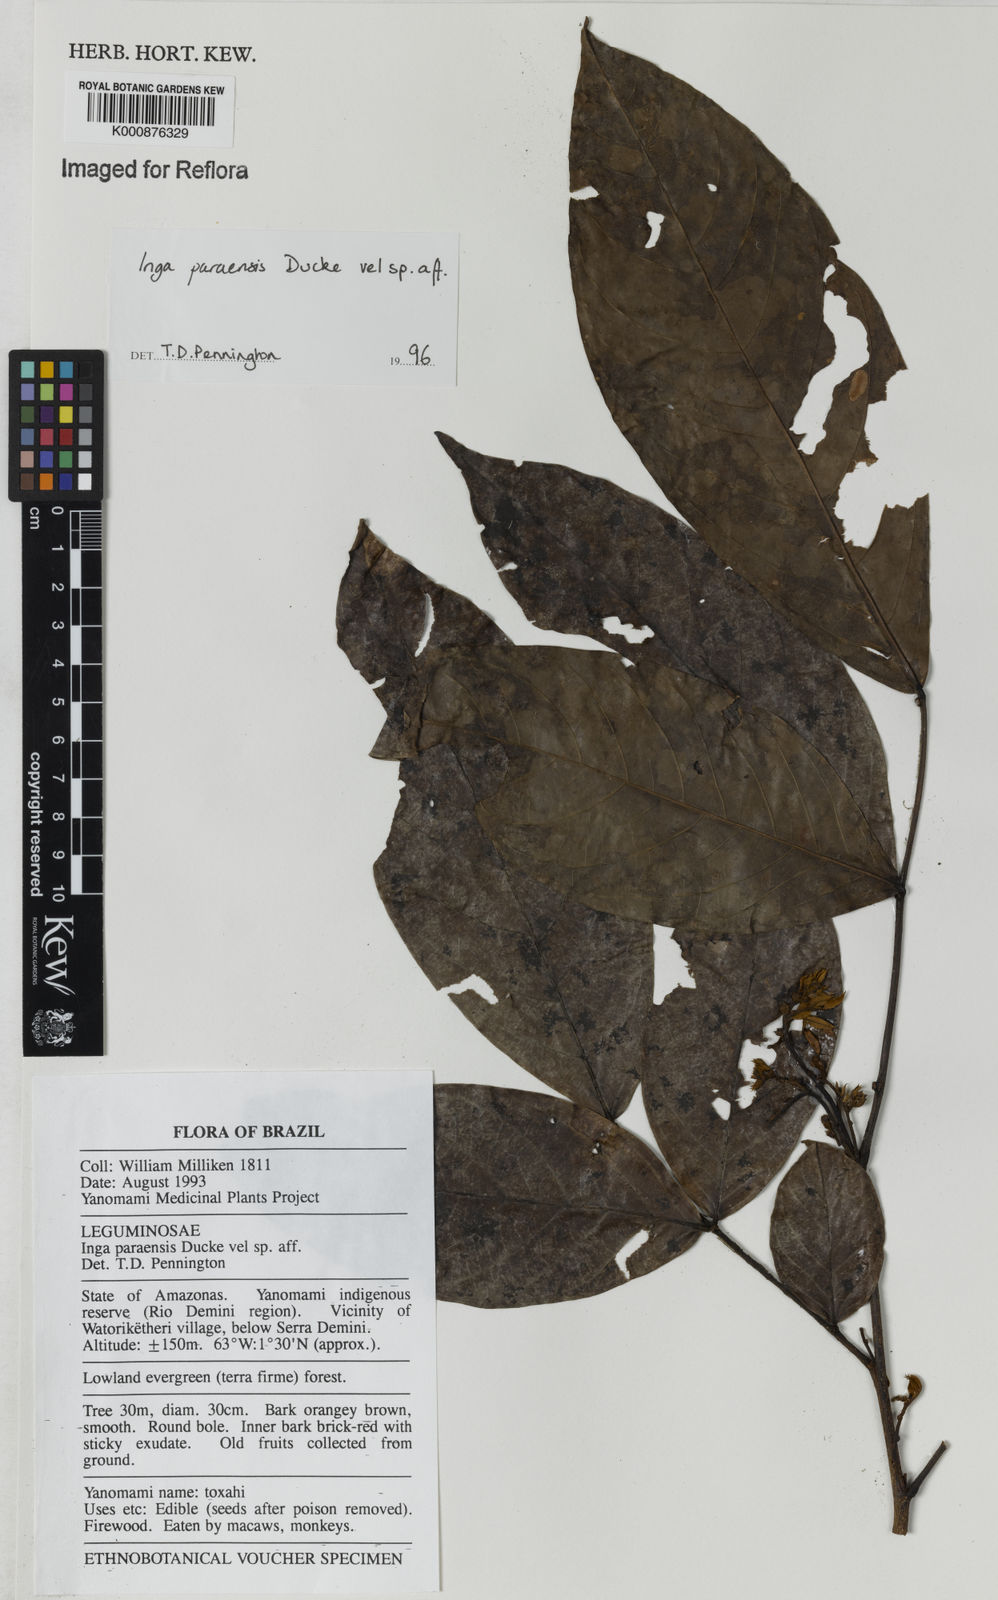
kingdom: Plantae
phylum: Tracheophyta
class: Magnoliopsida
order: Fabales
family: Fabaceae
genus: Inga
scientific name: Inga paraensis
